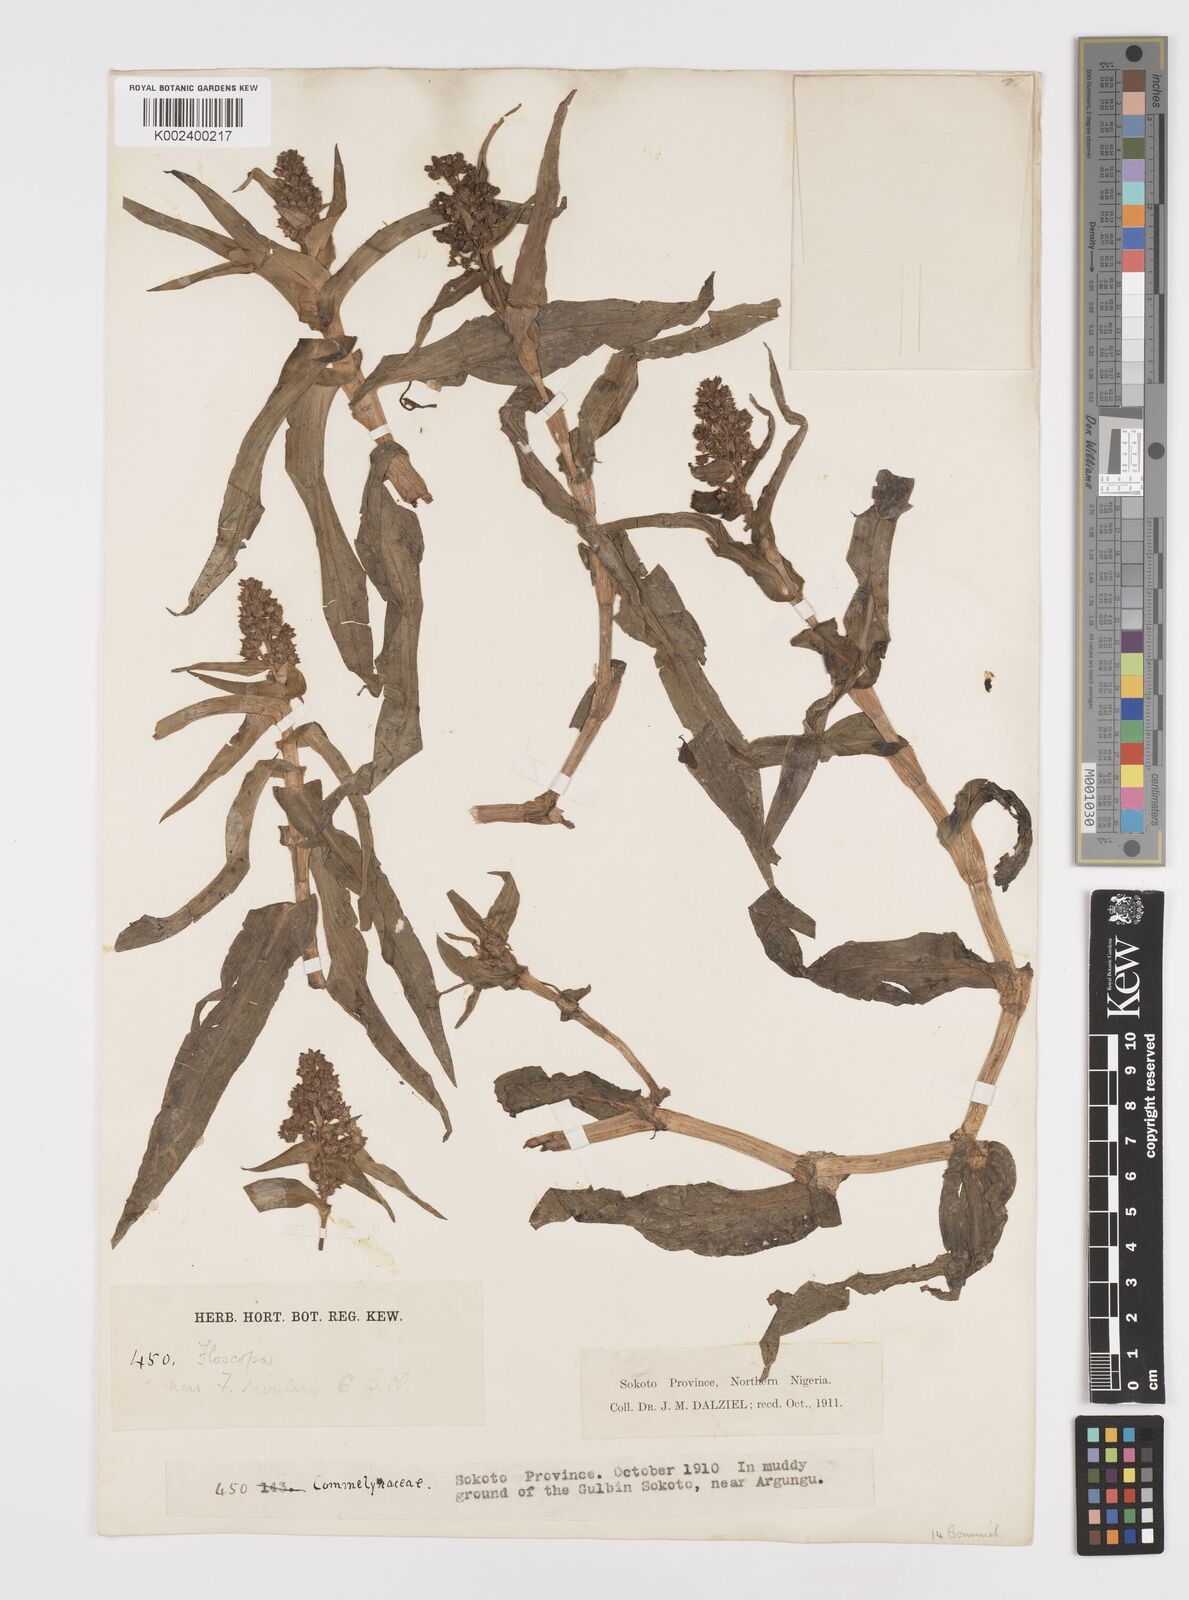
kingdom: Plantae
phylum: Tracheophyta
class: Liliopsida
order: Commelinales
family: Commelinaceae
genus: Floscopa
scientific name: Floscopa
